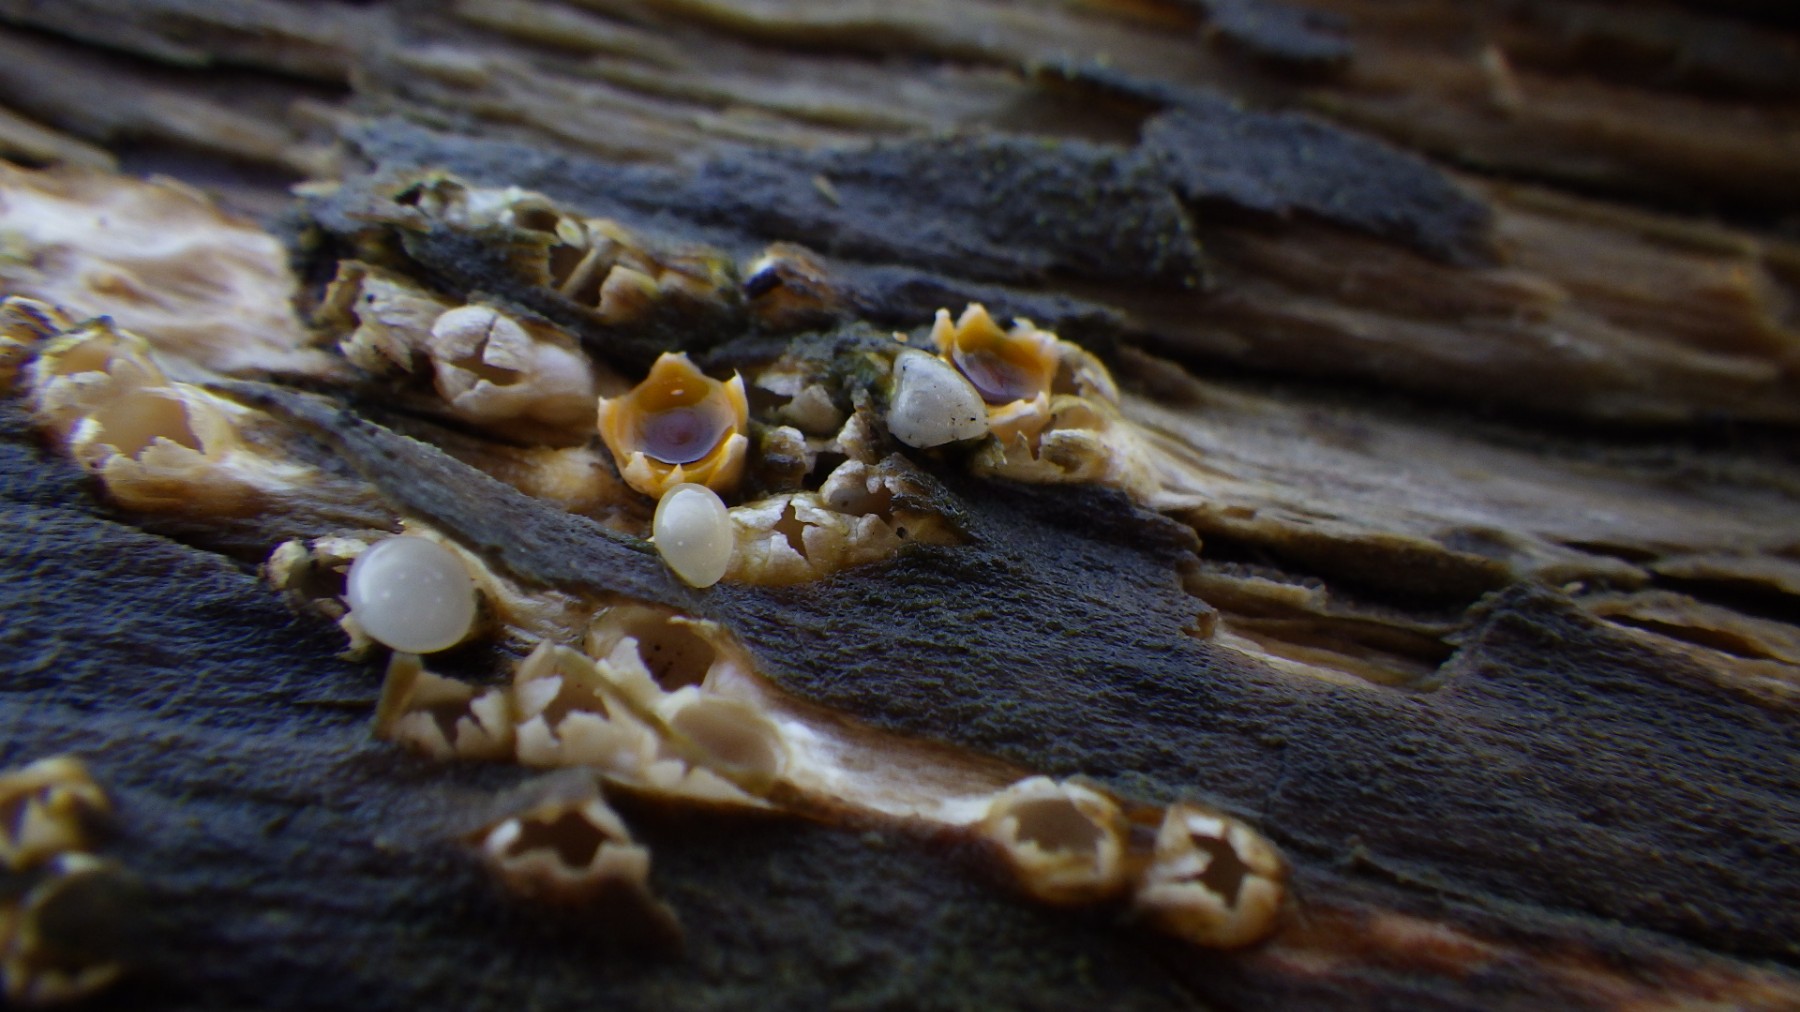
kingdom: Fungi
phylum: Basidiomycota
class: Agaricomycetes
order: Geastrales
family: Geastraceae
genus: Sphaerobolus
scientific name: Sphaerobolus stellatus
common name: bombekaster
